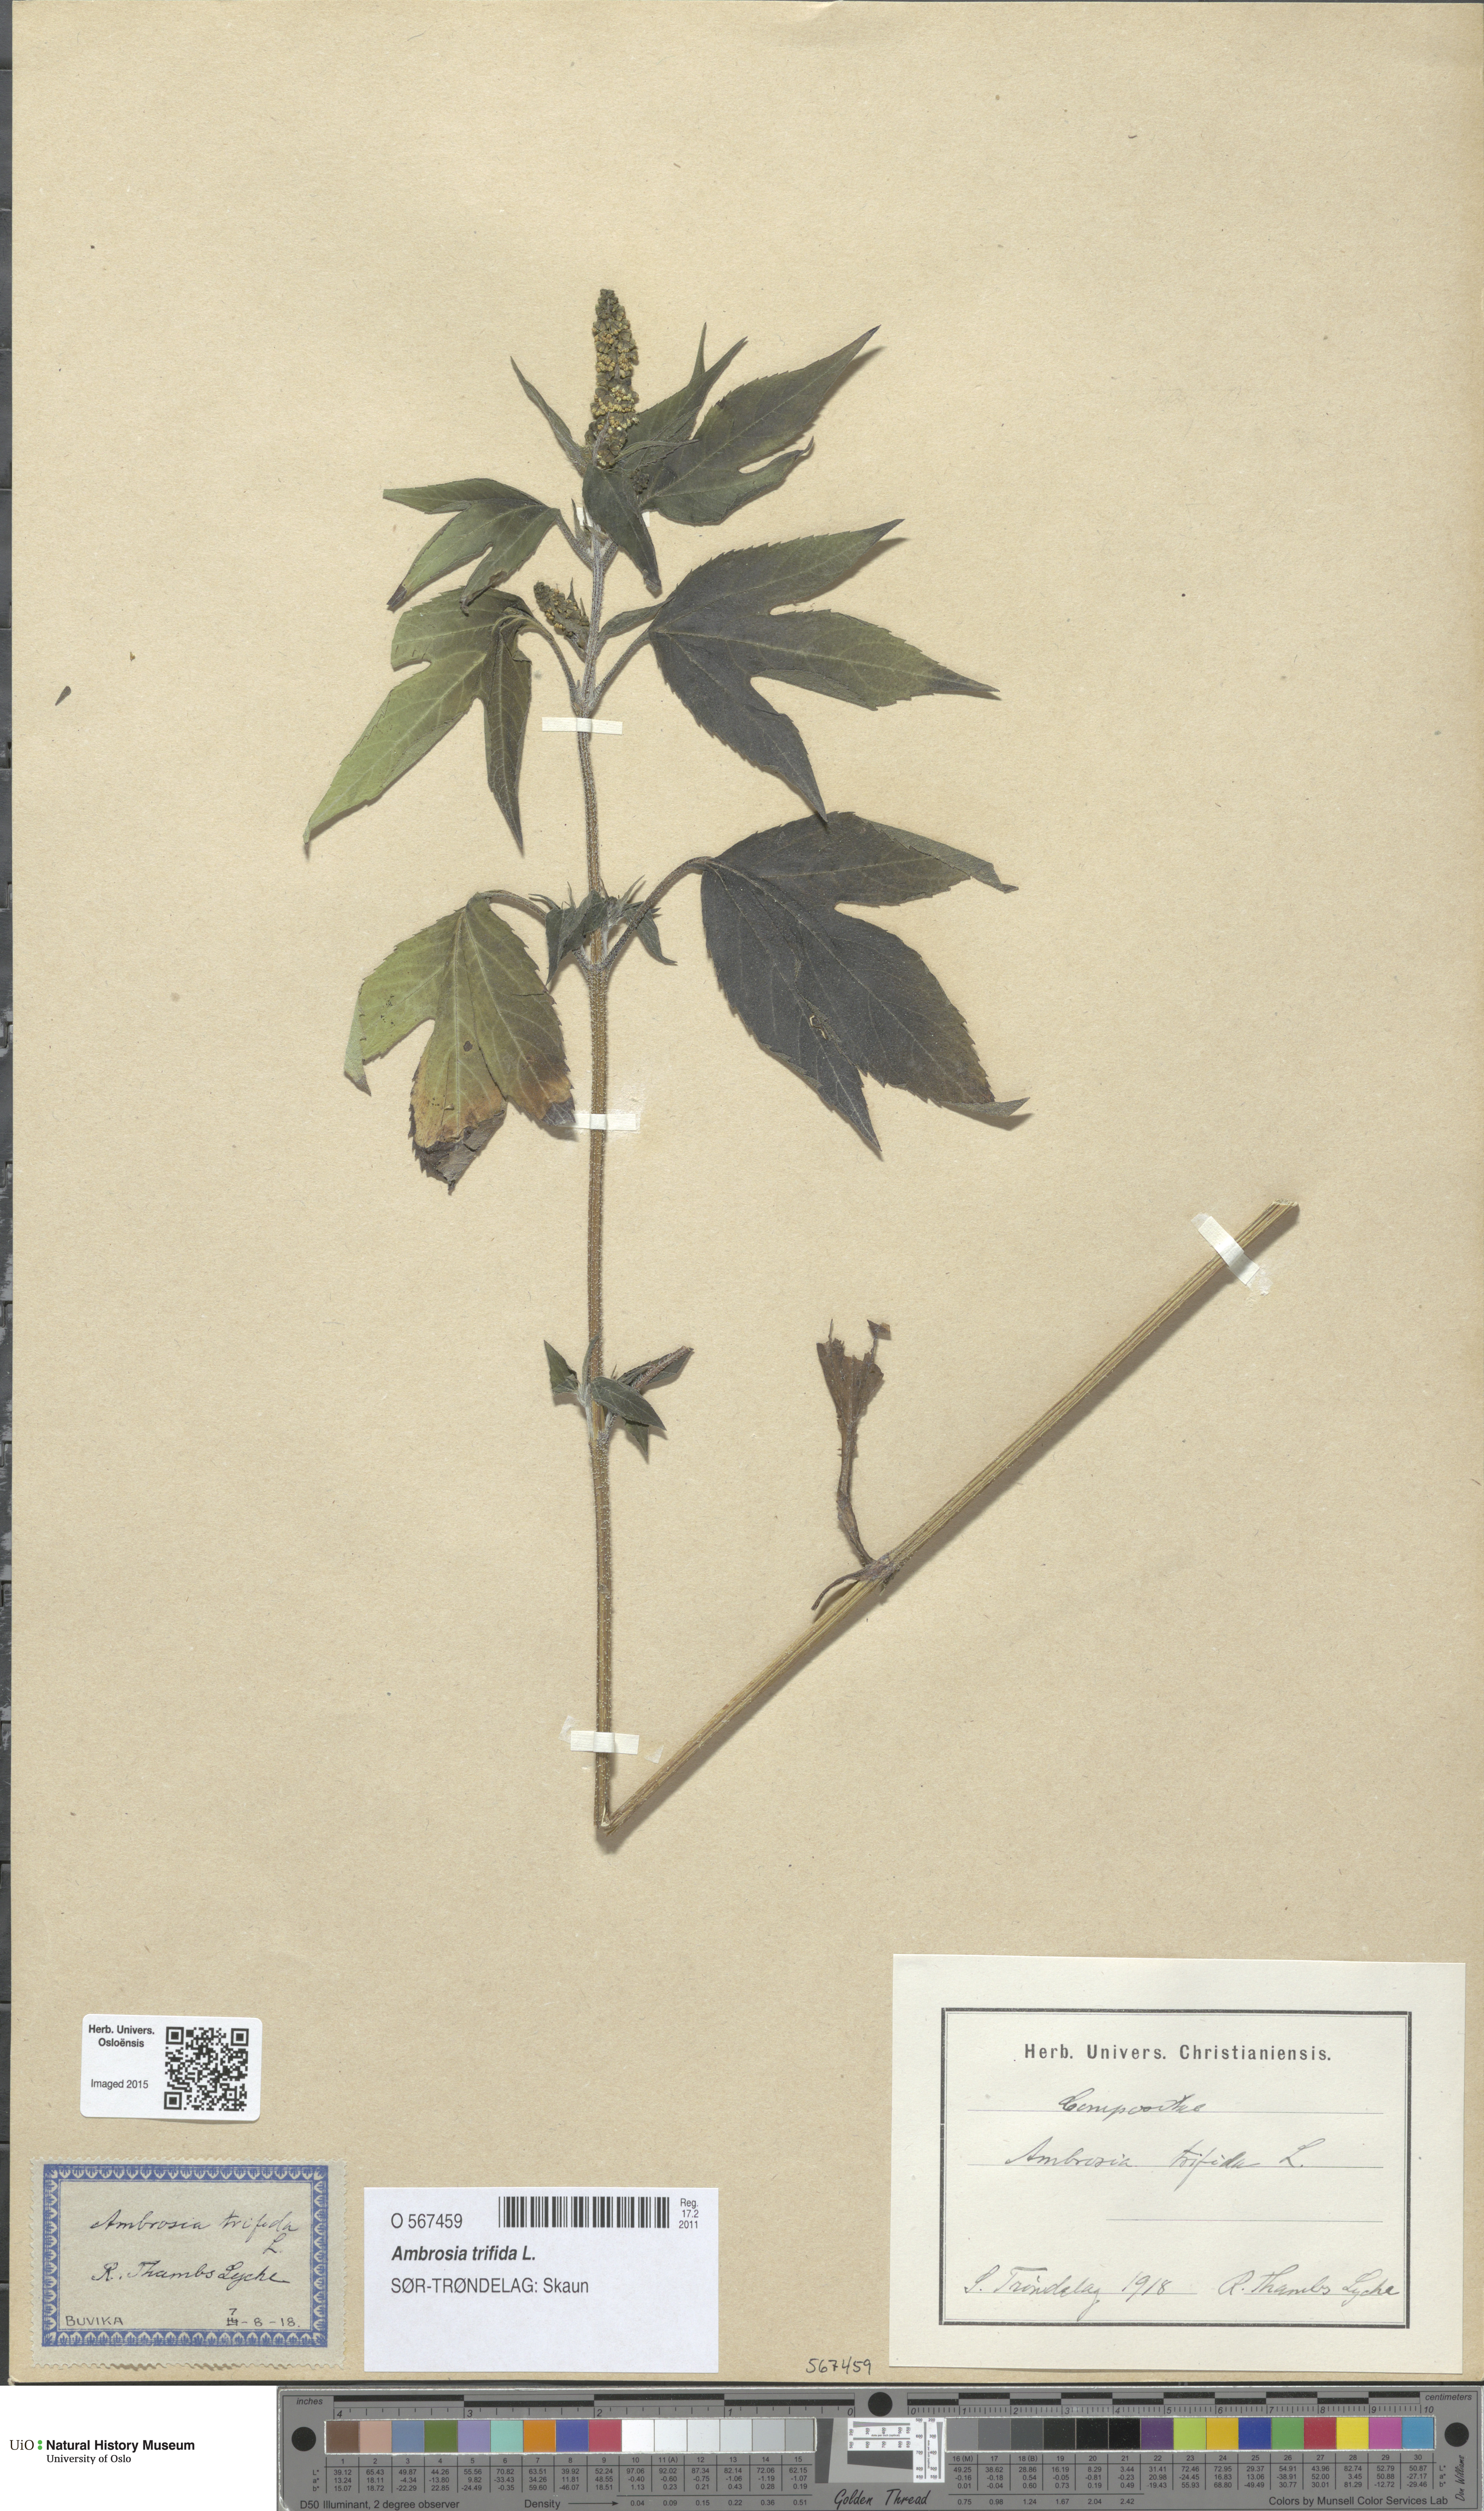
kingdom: Plantae
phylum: Tracheophyta
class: Magnoliopsida
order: Asterales
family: Asteraceae
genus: Ambrosia
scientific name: Ambrosia trifida
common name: Giant ragweed
